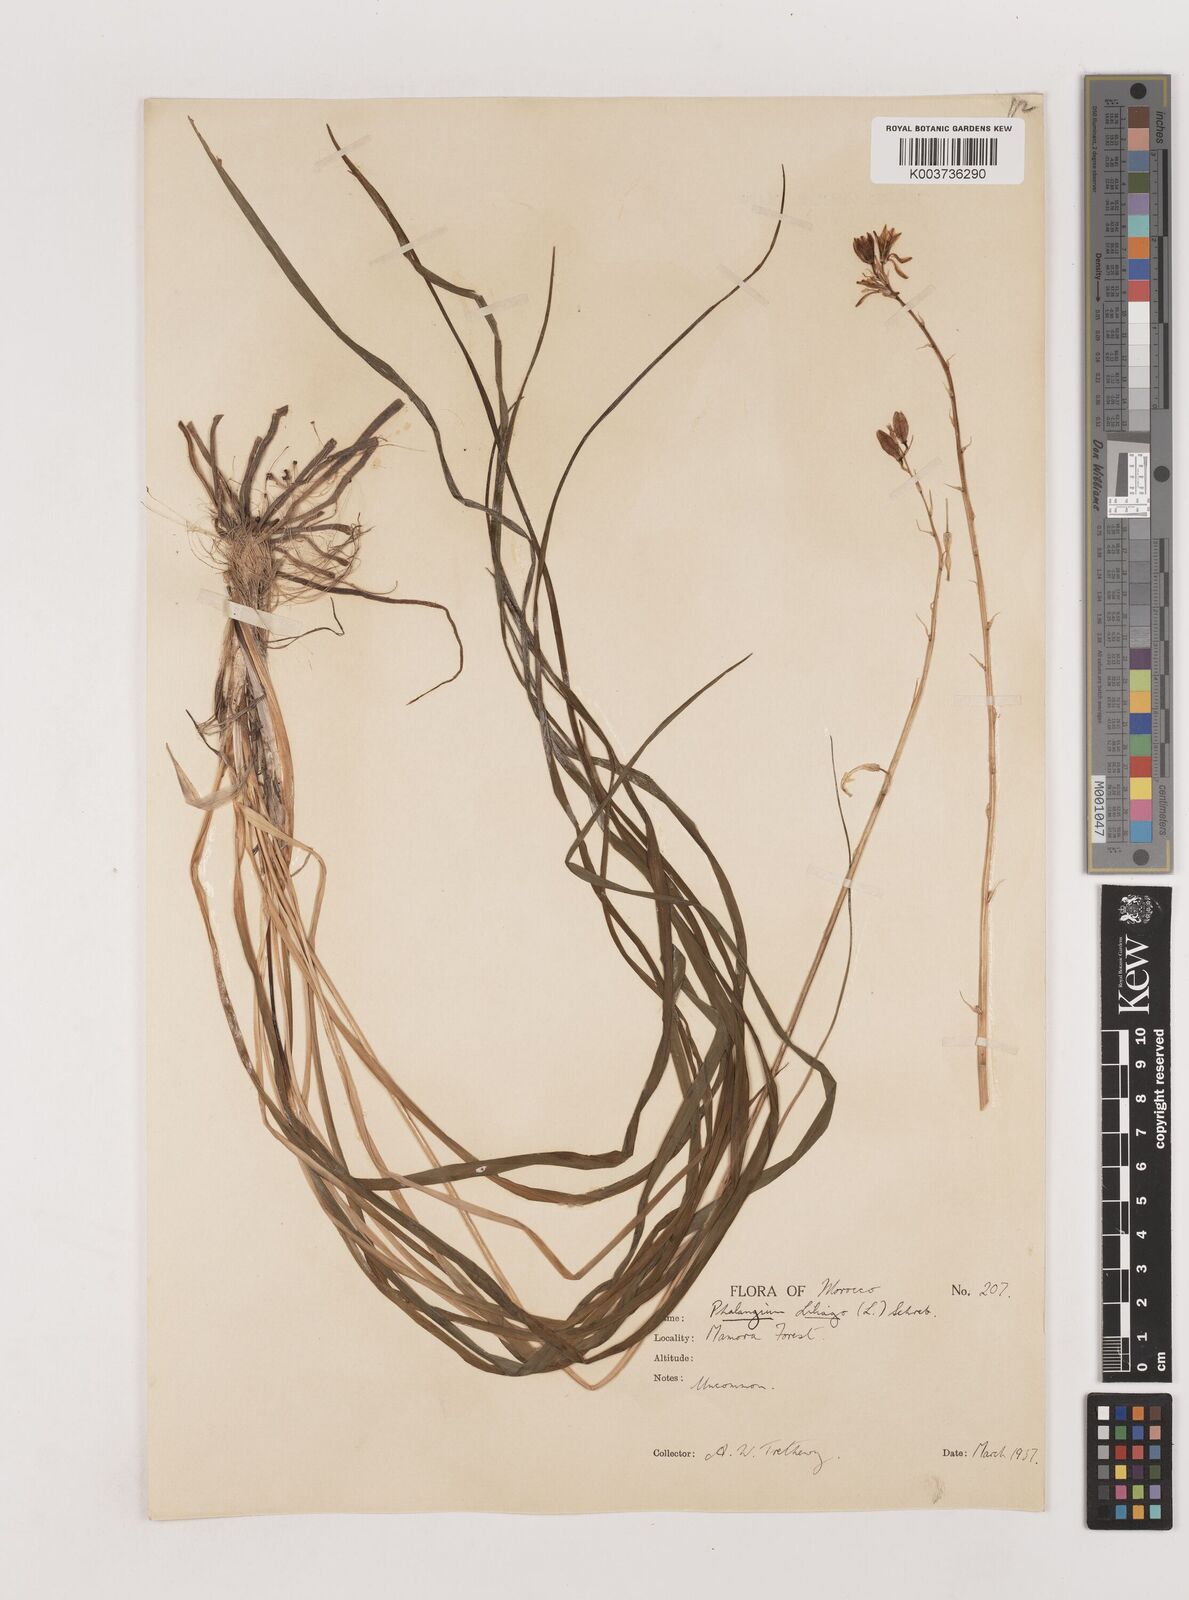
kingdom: Plantae
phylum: Tracheophyta
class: Liliopsida
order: Asparagales
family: Asparagaceae
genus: Anthericum
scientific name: Anthericum liliago
